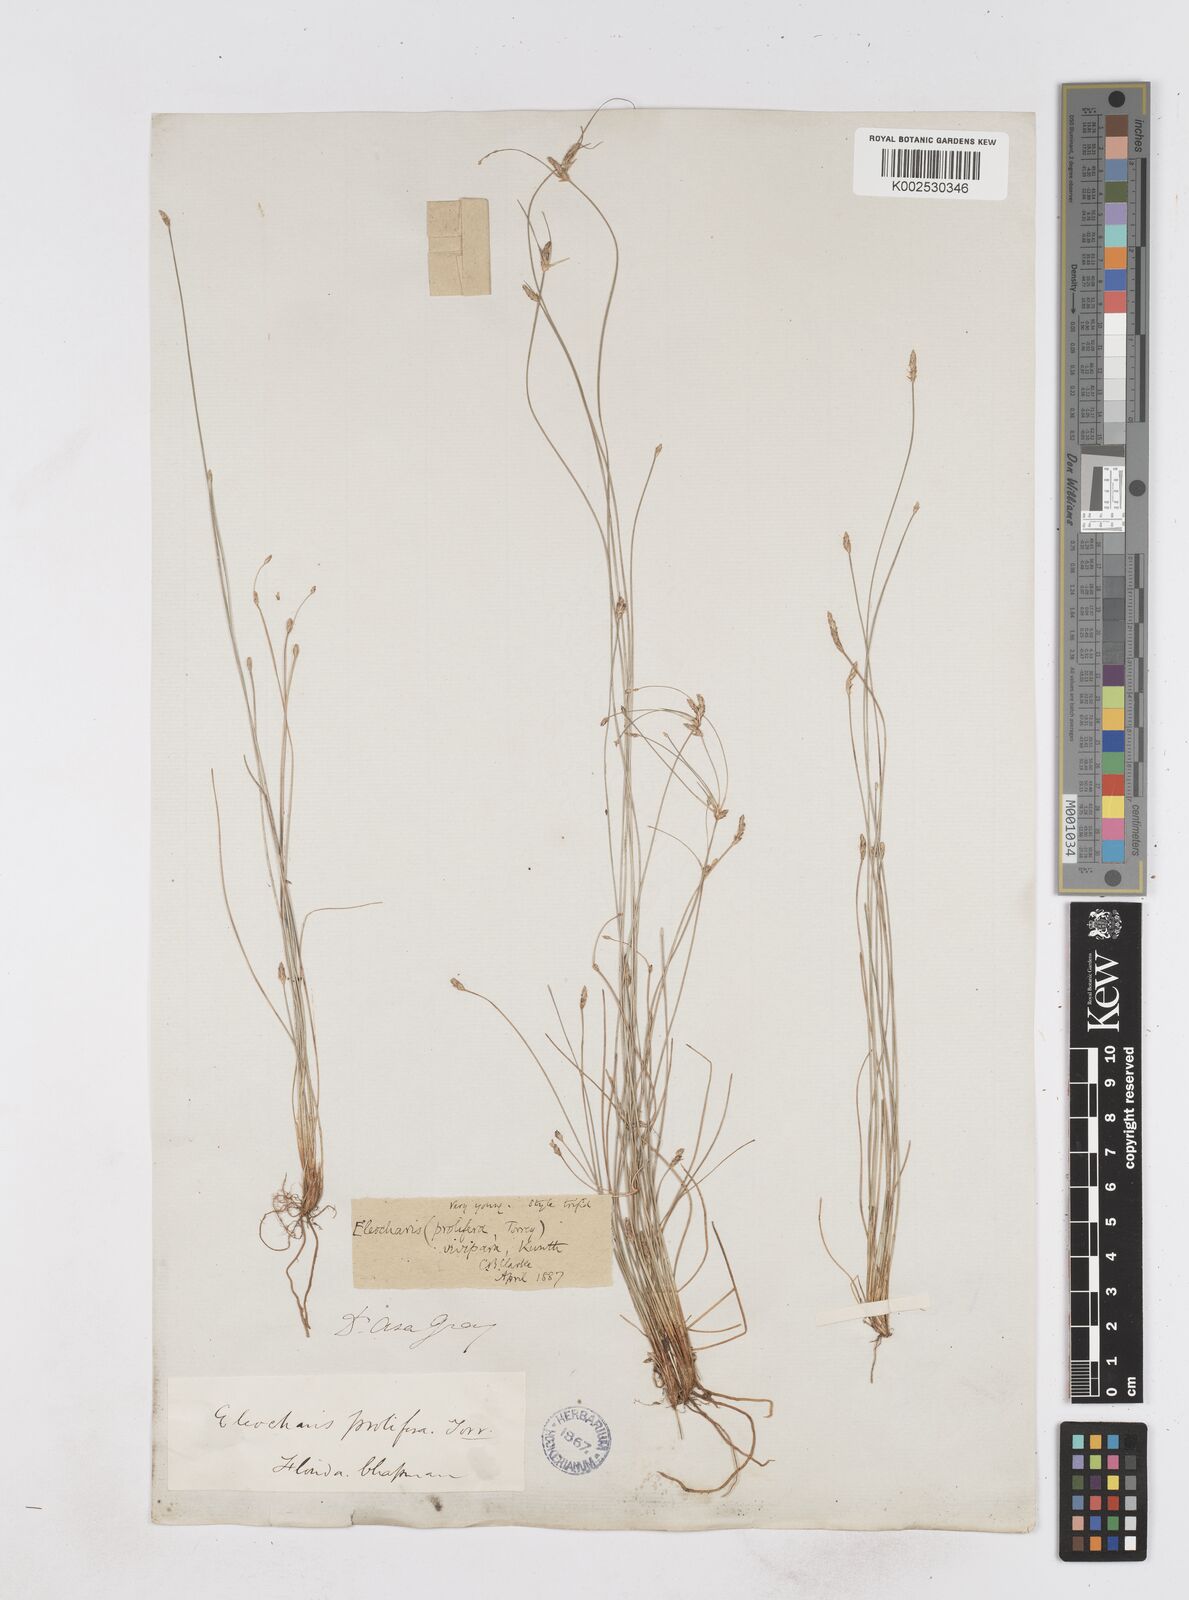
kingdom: Plantae
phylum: Tracheophyta
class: Liliopsida
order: Poales
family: Cyperaceae
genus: Eleocharis
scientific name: Eleocharis
